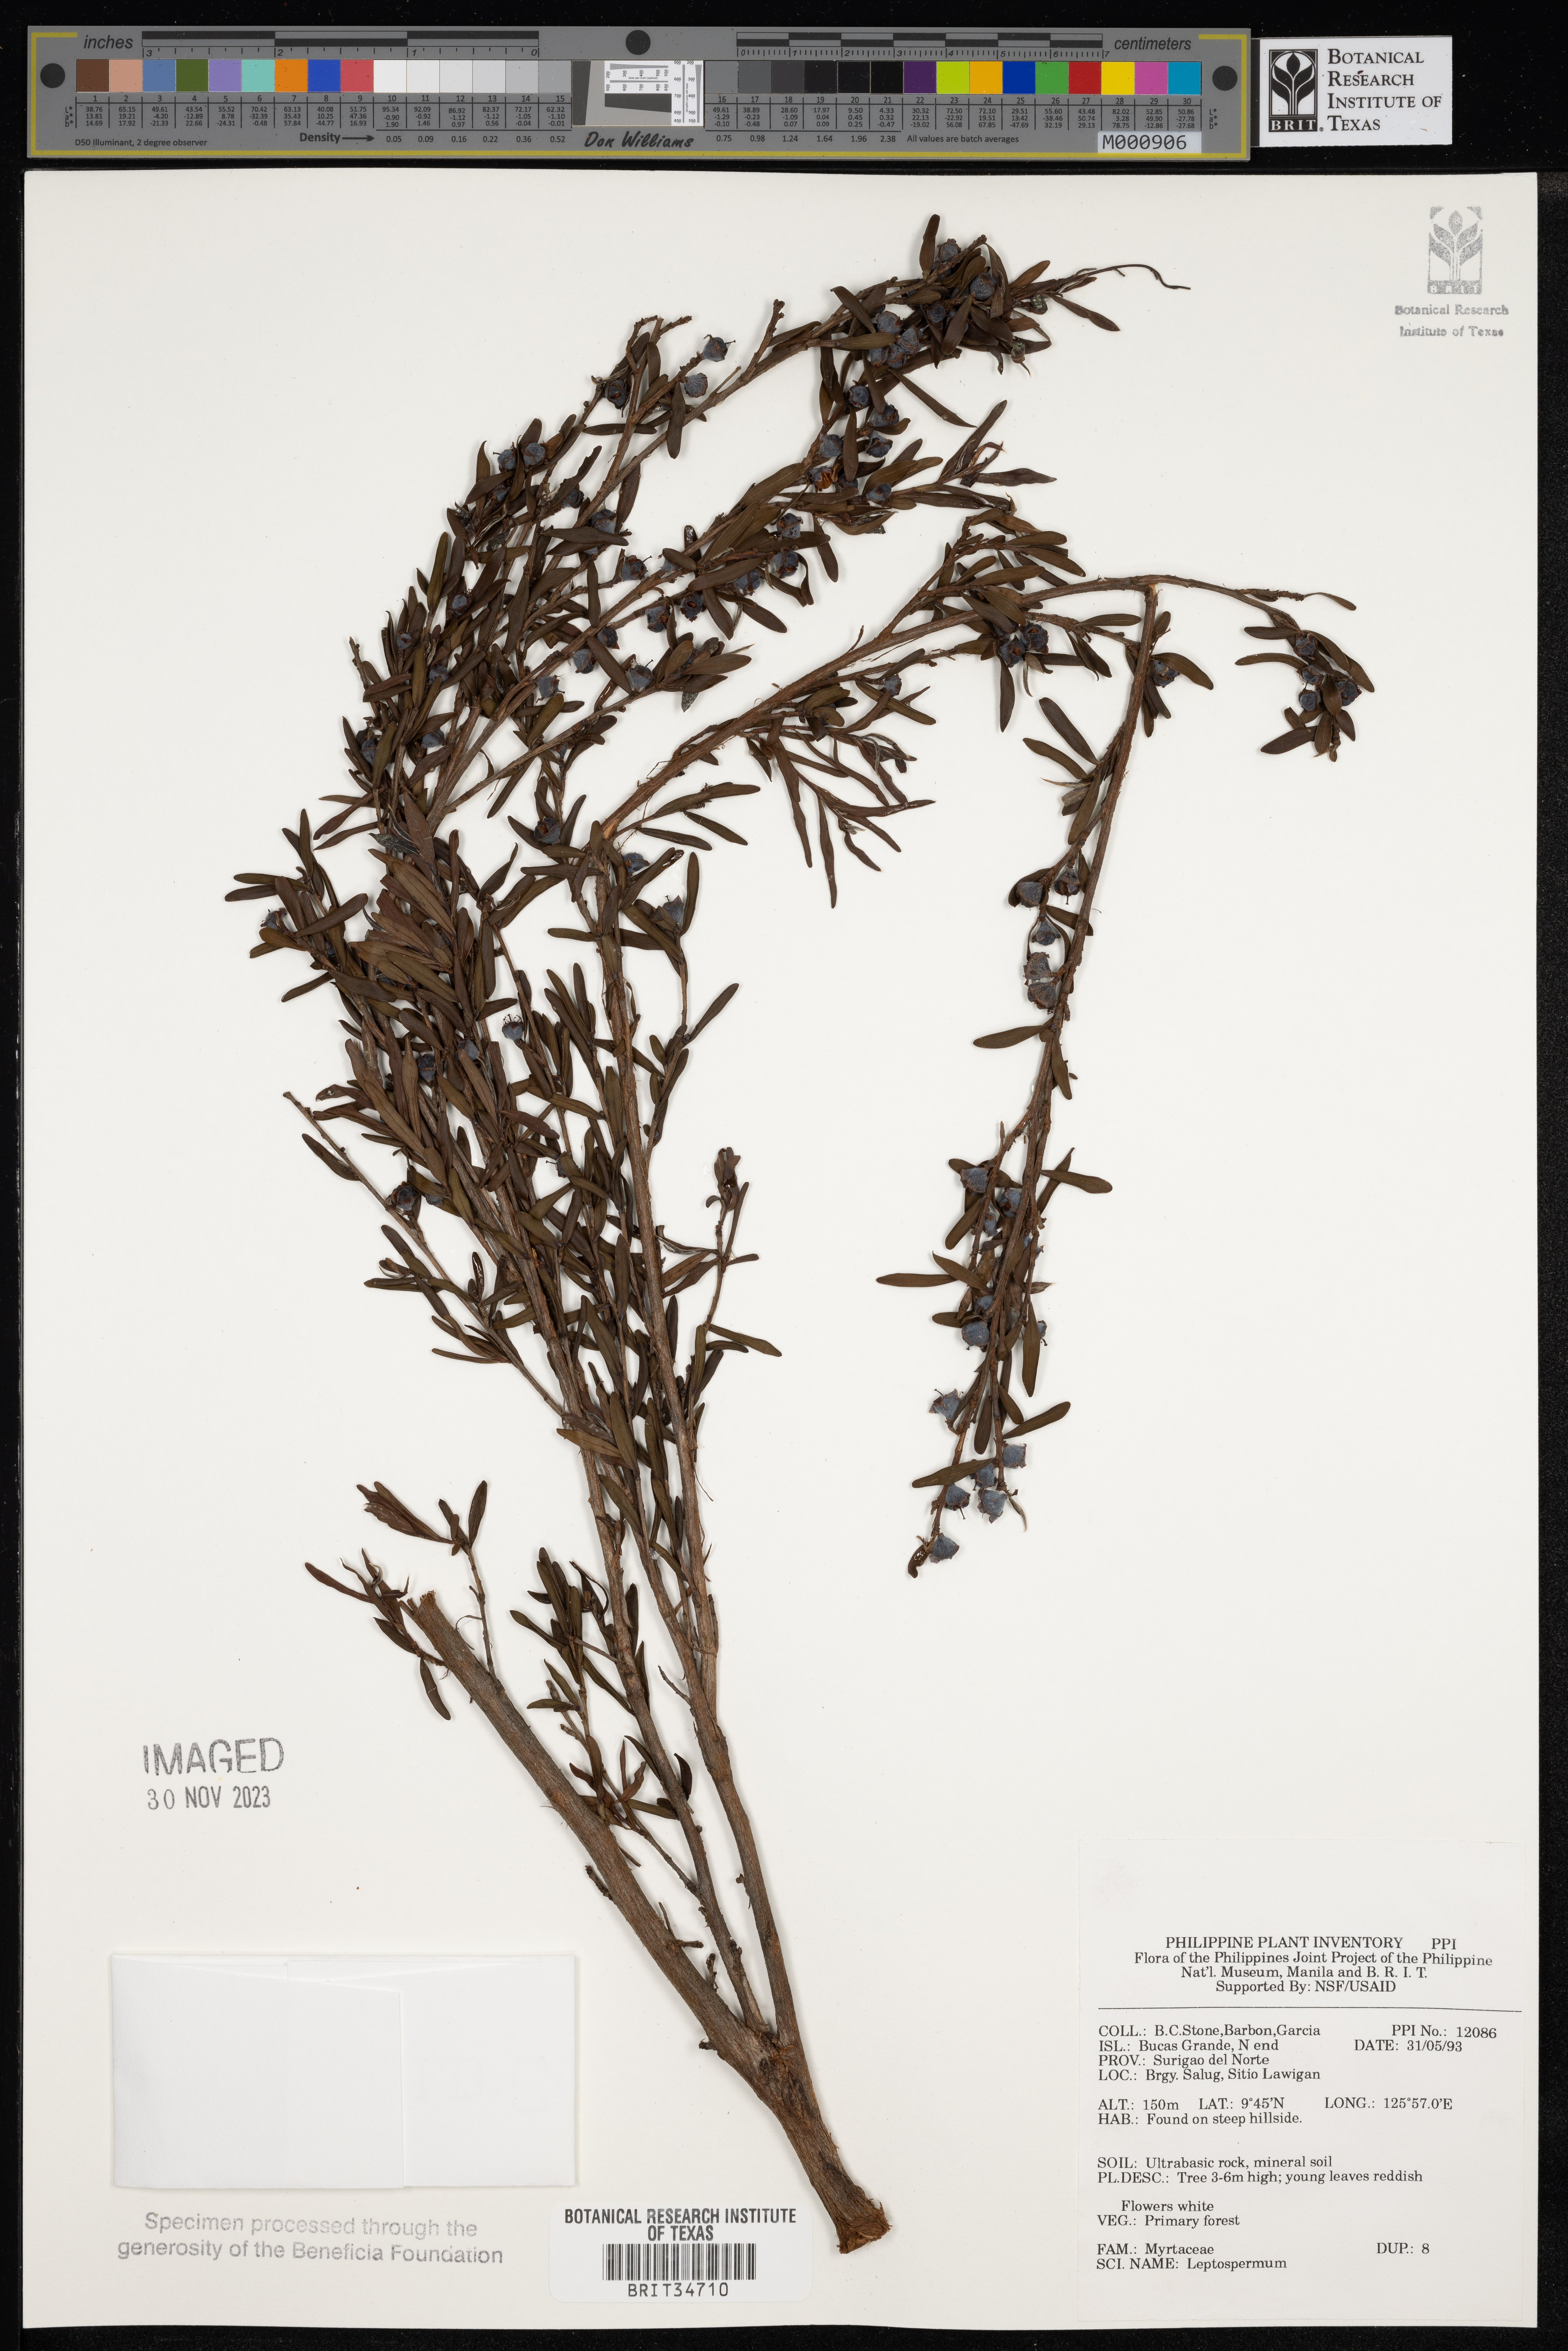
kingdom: Plantae
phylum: Tracheophyta
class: Magnoliopsida
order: Myrtales
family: Myrtaceae
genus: Leptospermum
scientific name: Leptospermum
